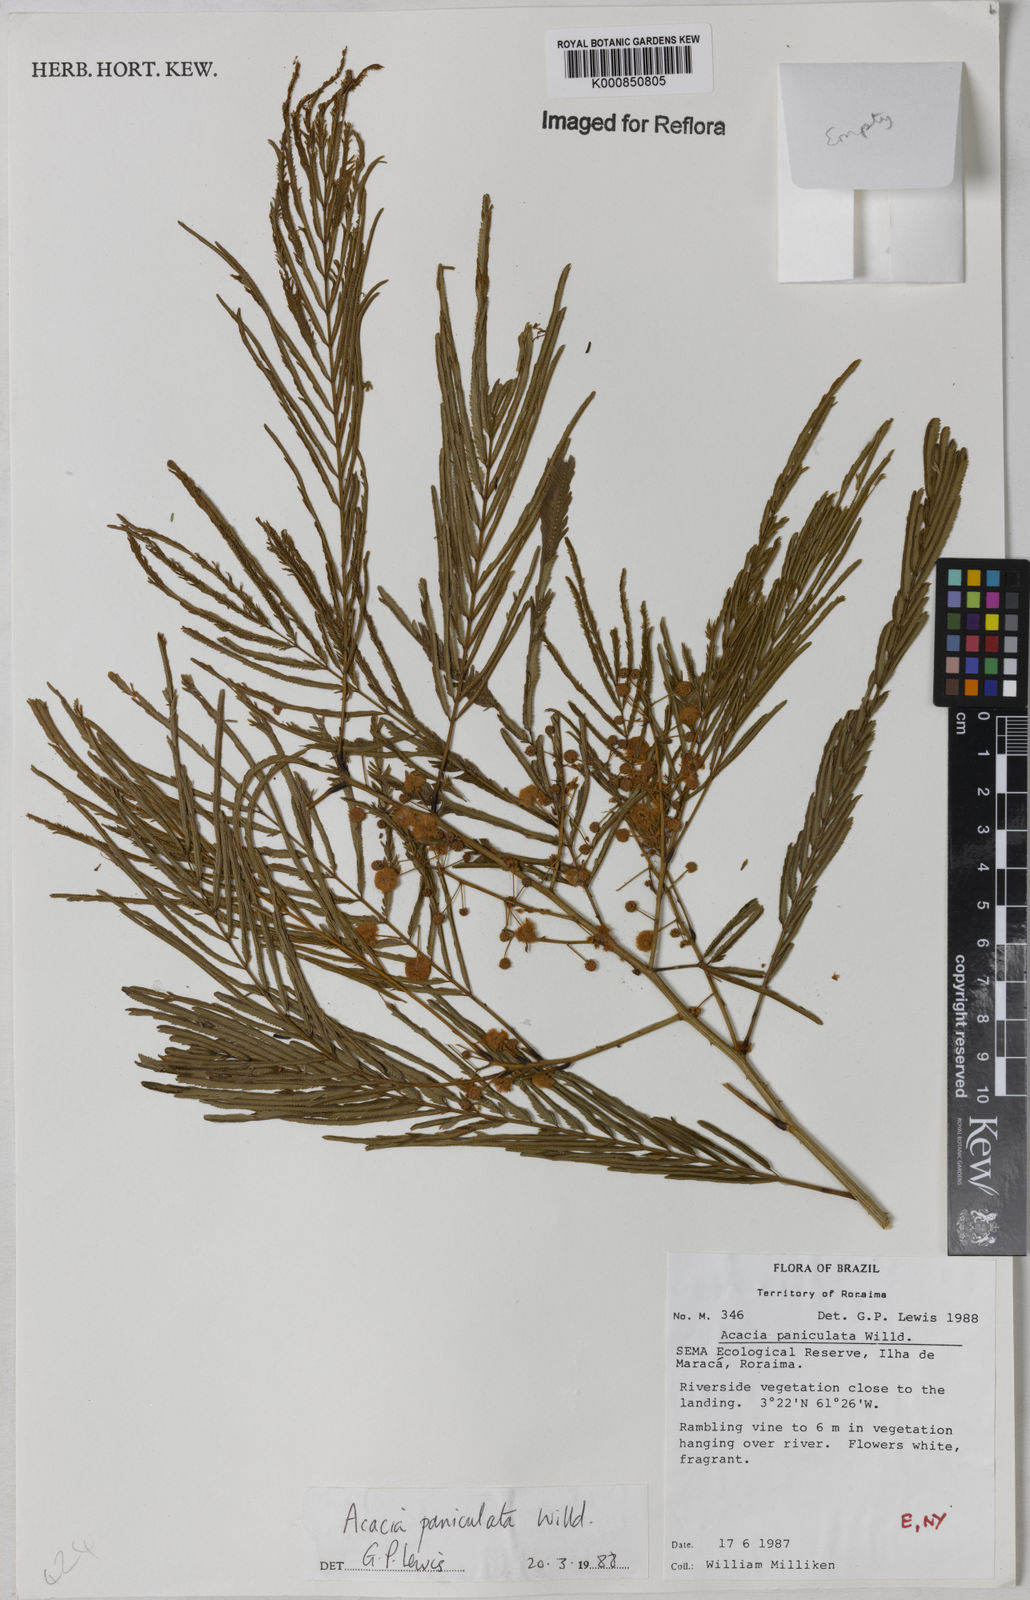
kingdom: Plantae
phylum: Tracheophyta
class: Magnoliopsida
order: Fabales
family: Fabaceae
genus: Senegalia
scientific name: Senegalia tenuifolia
